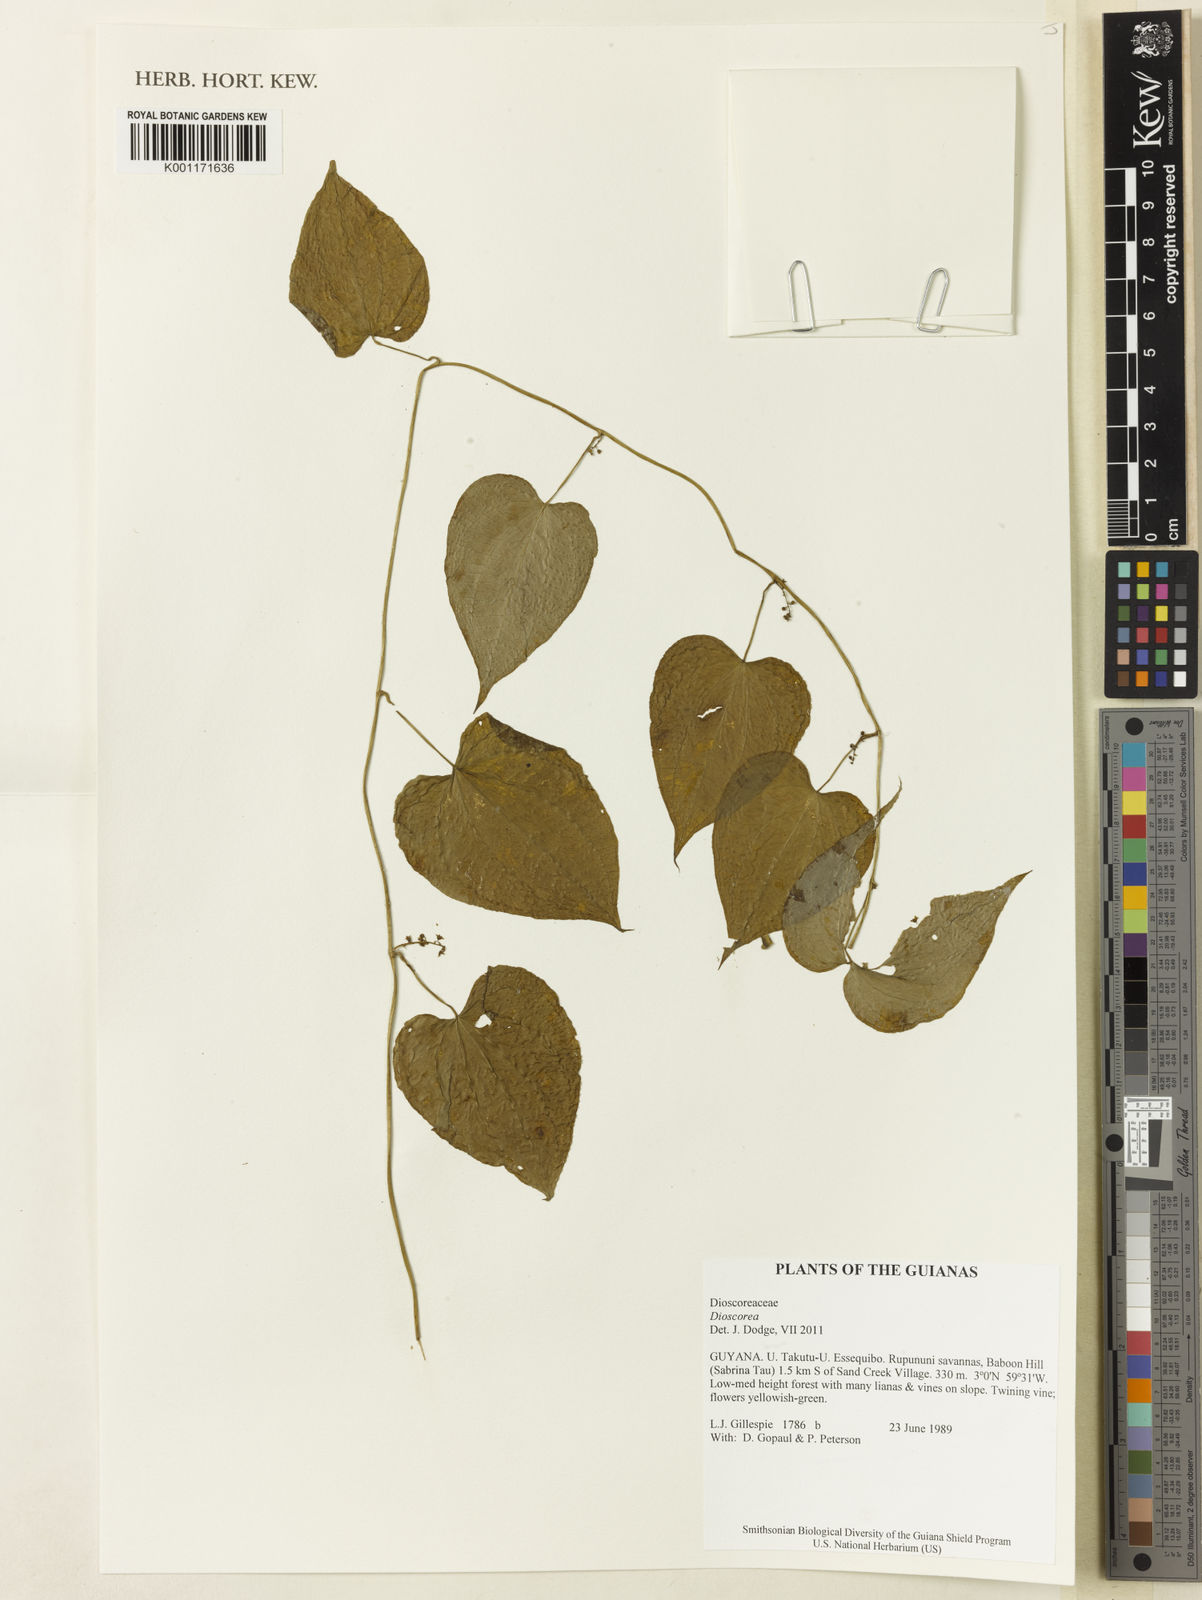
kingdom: Plantae
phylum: Tracheophyta
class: Liliopsida
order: Dioscoreales
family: Dioscoreaceae
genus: Dioscorea
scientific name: Dioscorea
